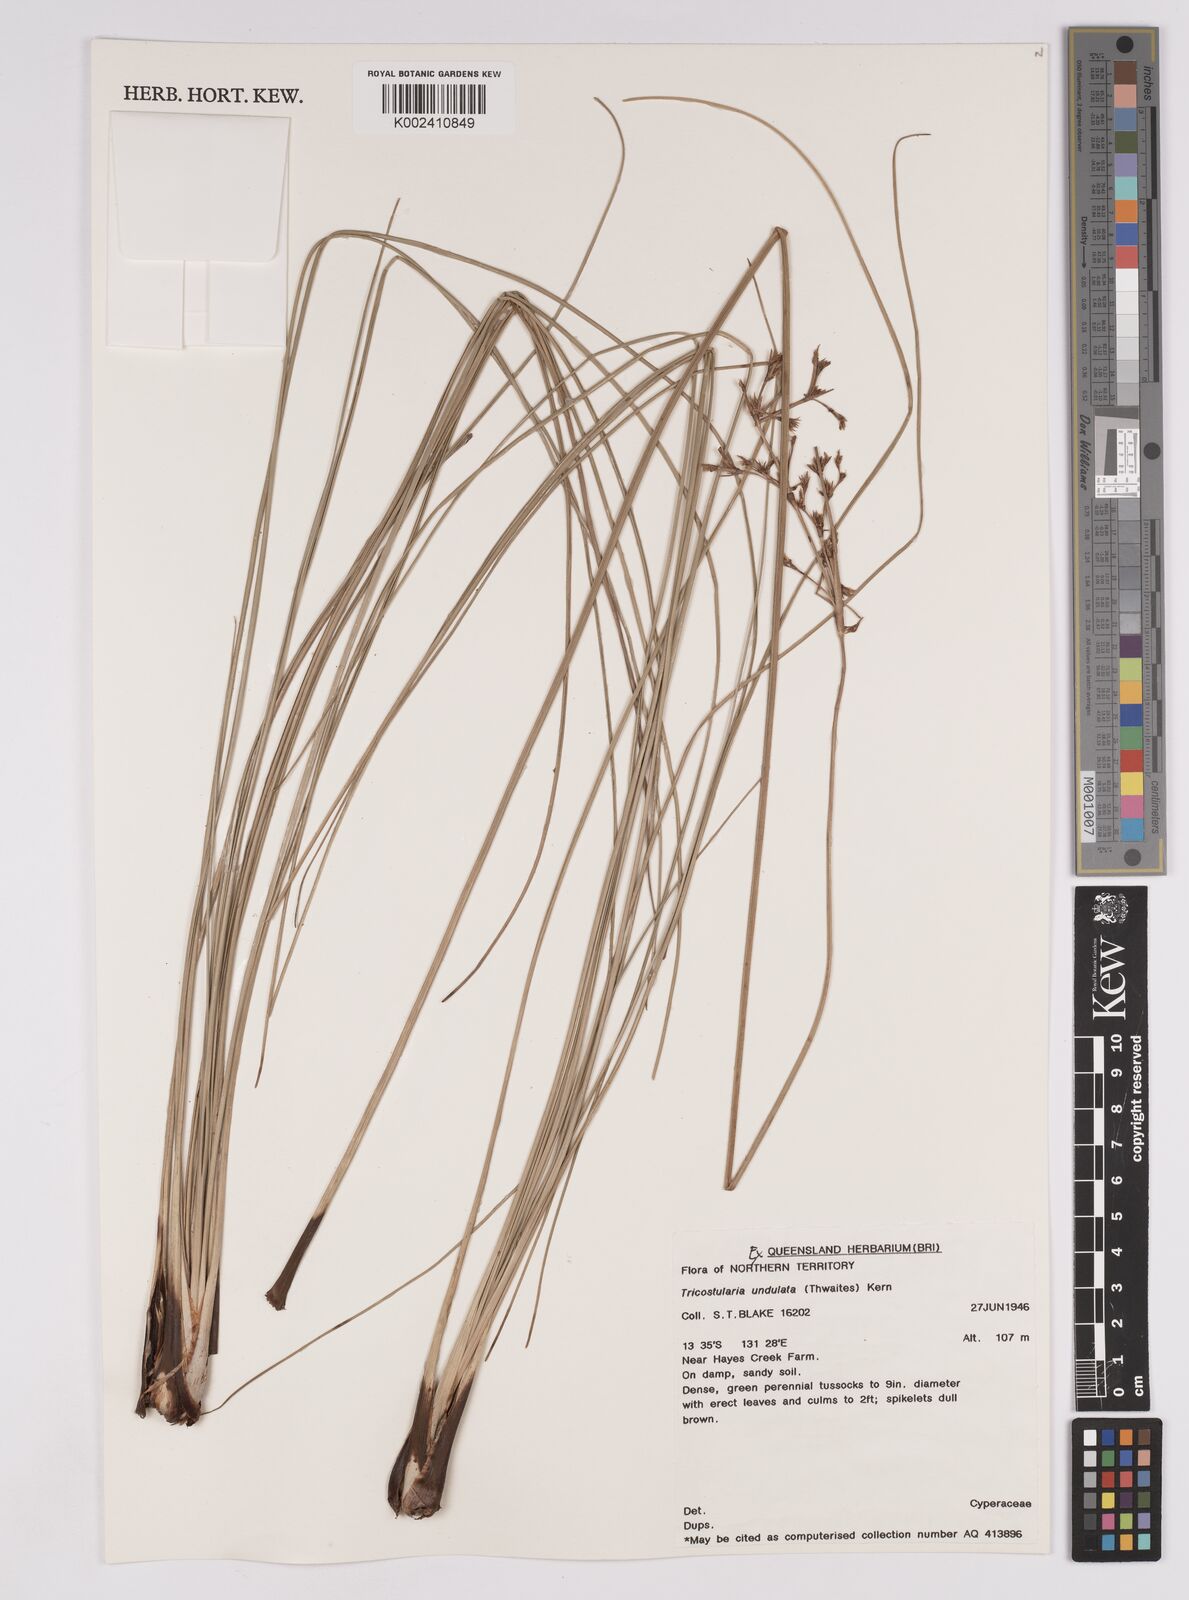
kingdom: Plantae
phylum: Tracheophyta
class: Liliopsida
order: Poales
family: Cyperaceae
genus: Anthelepis
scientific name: Anthelepis undulata
